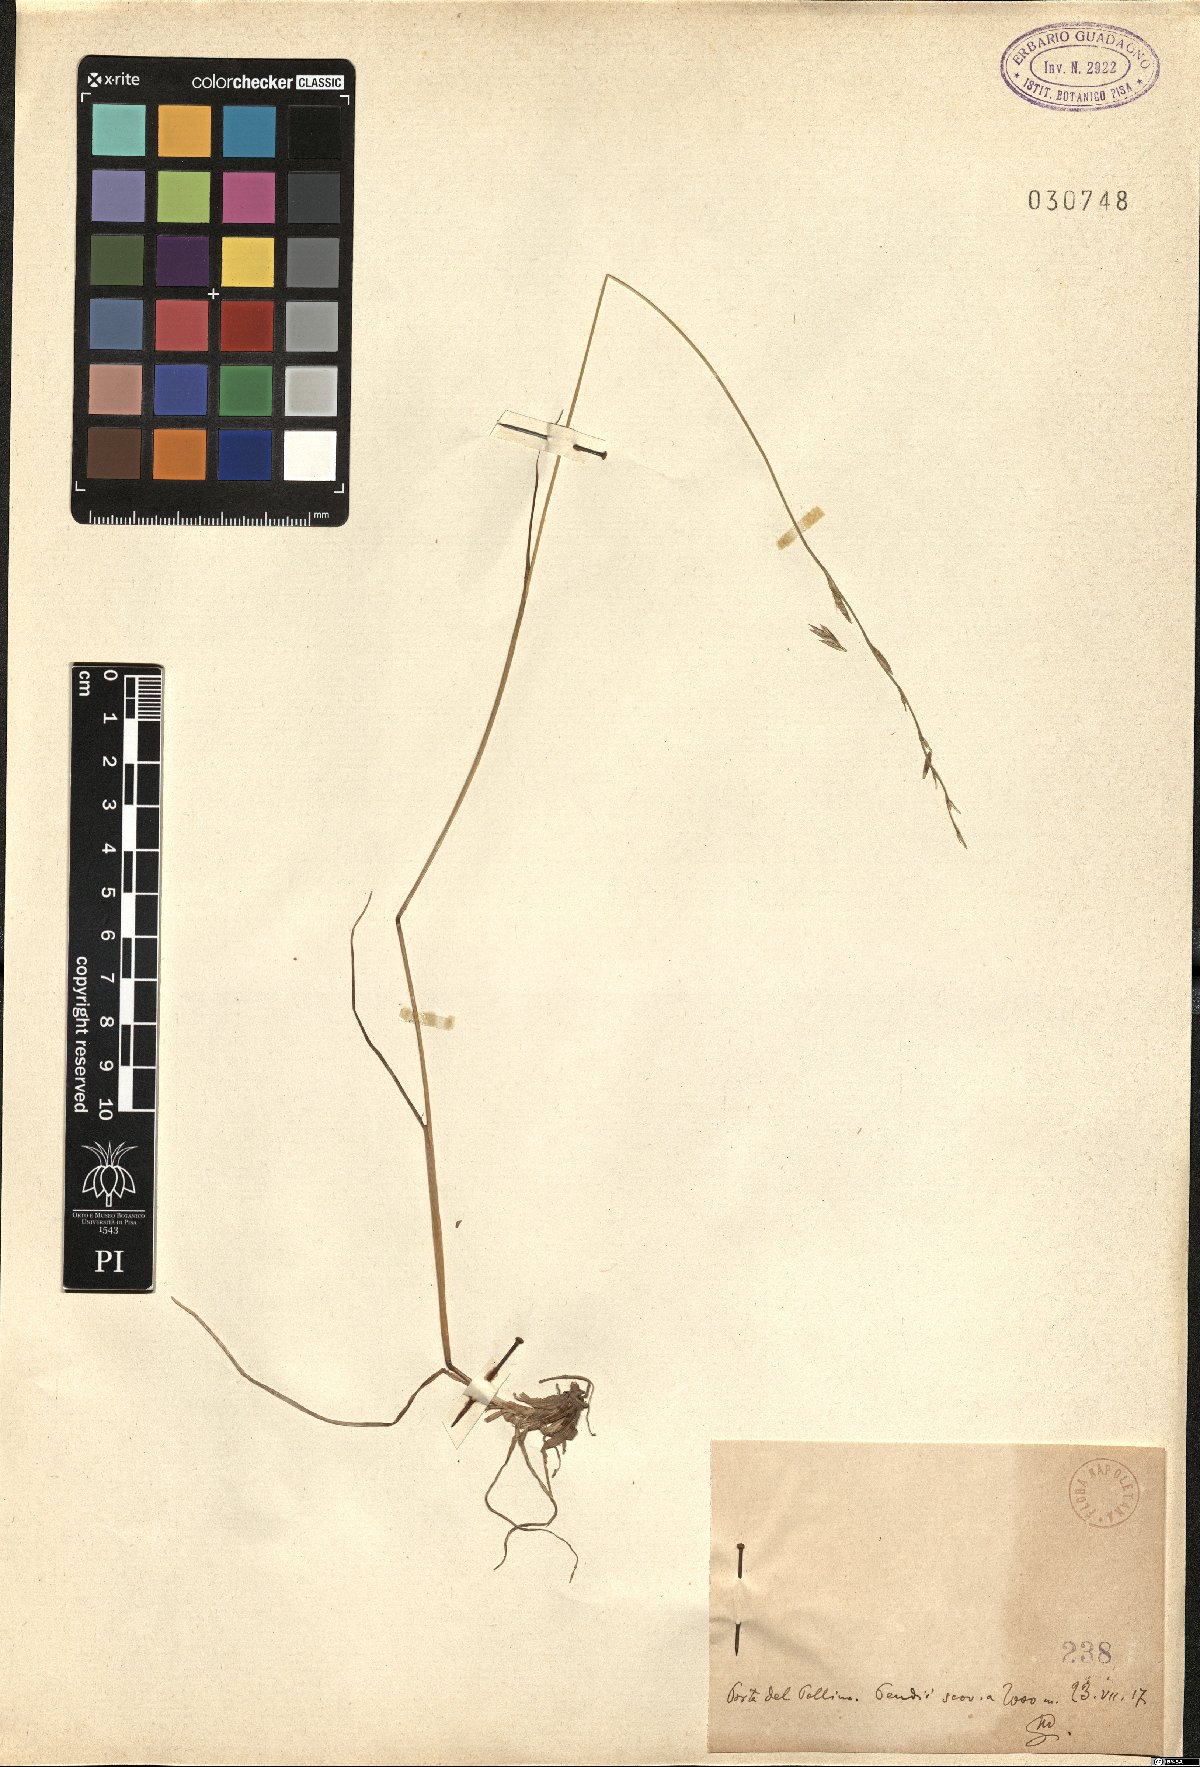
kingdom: Plantae
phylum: Tracheophyta
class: Liliopsida
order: Poales
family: Poaceae
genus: Lolium
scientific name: Lolium
